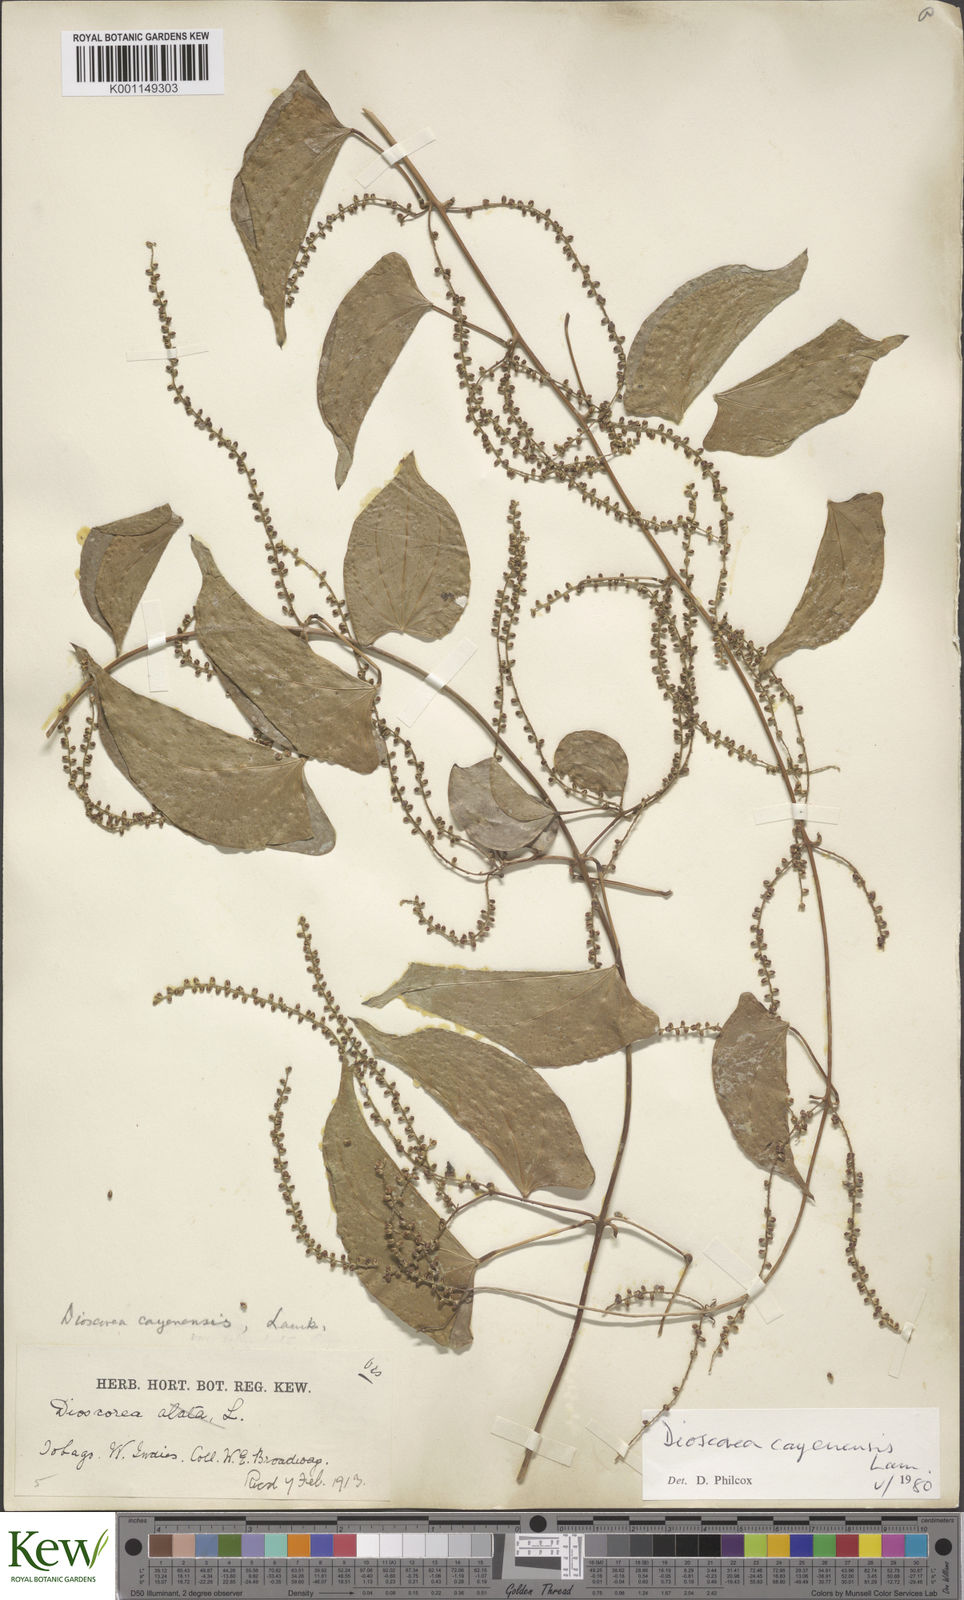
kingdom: Plantae
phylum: Tracheophyta
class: Liliopsida
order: Dioscoreales
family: Dioscoreaceae
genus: Dioscorea
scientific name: Dioscorea cayenensis
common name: Attoto yam
